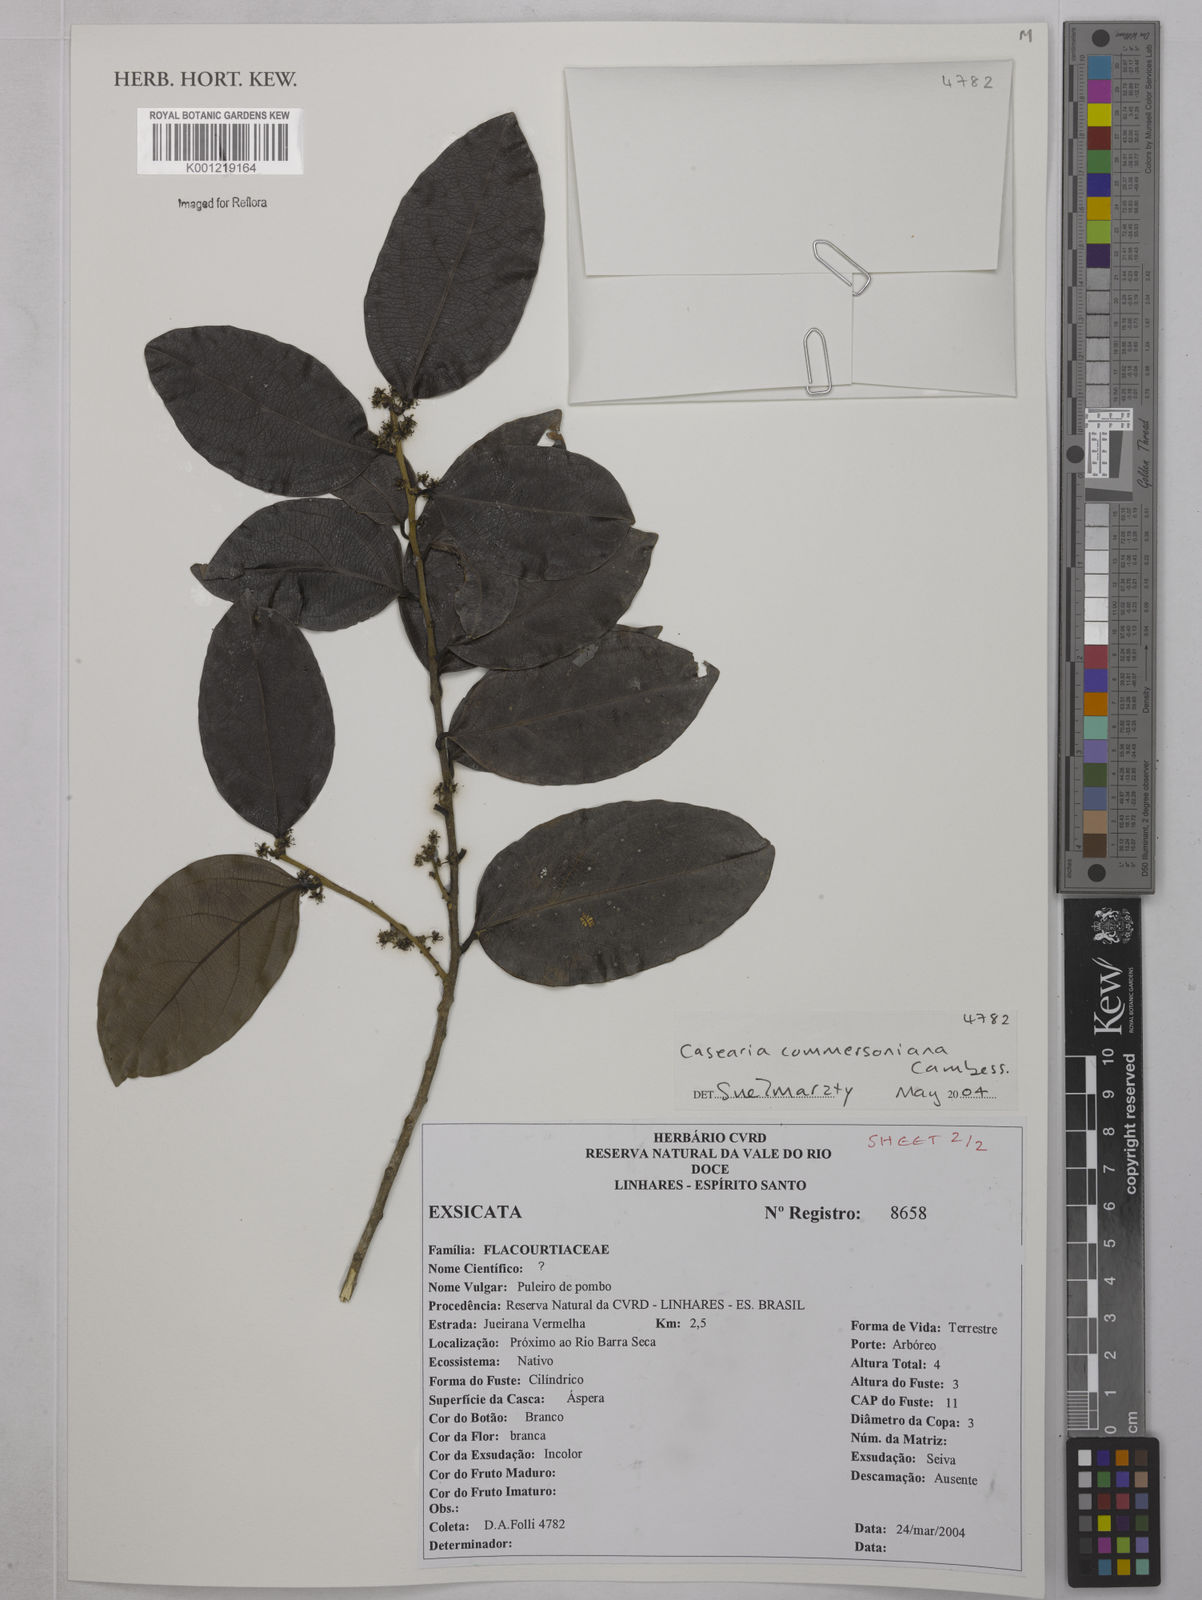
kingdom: Plantae
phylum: Tracheophyta
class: Magnoliopsida
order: Malpighiales
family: Salicaceae
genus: Piparea
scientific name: Piparea dentata
